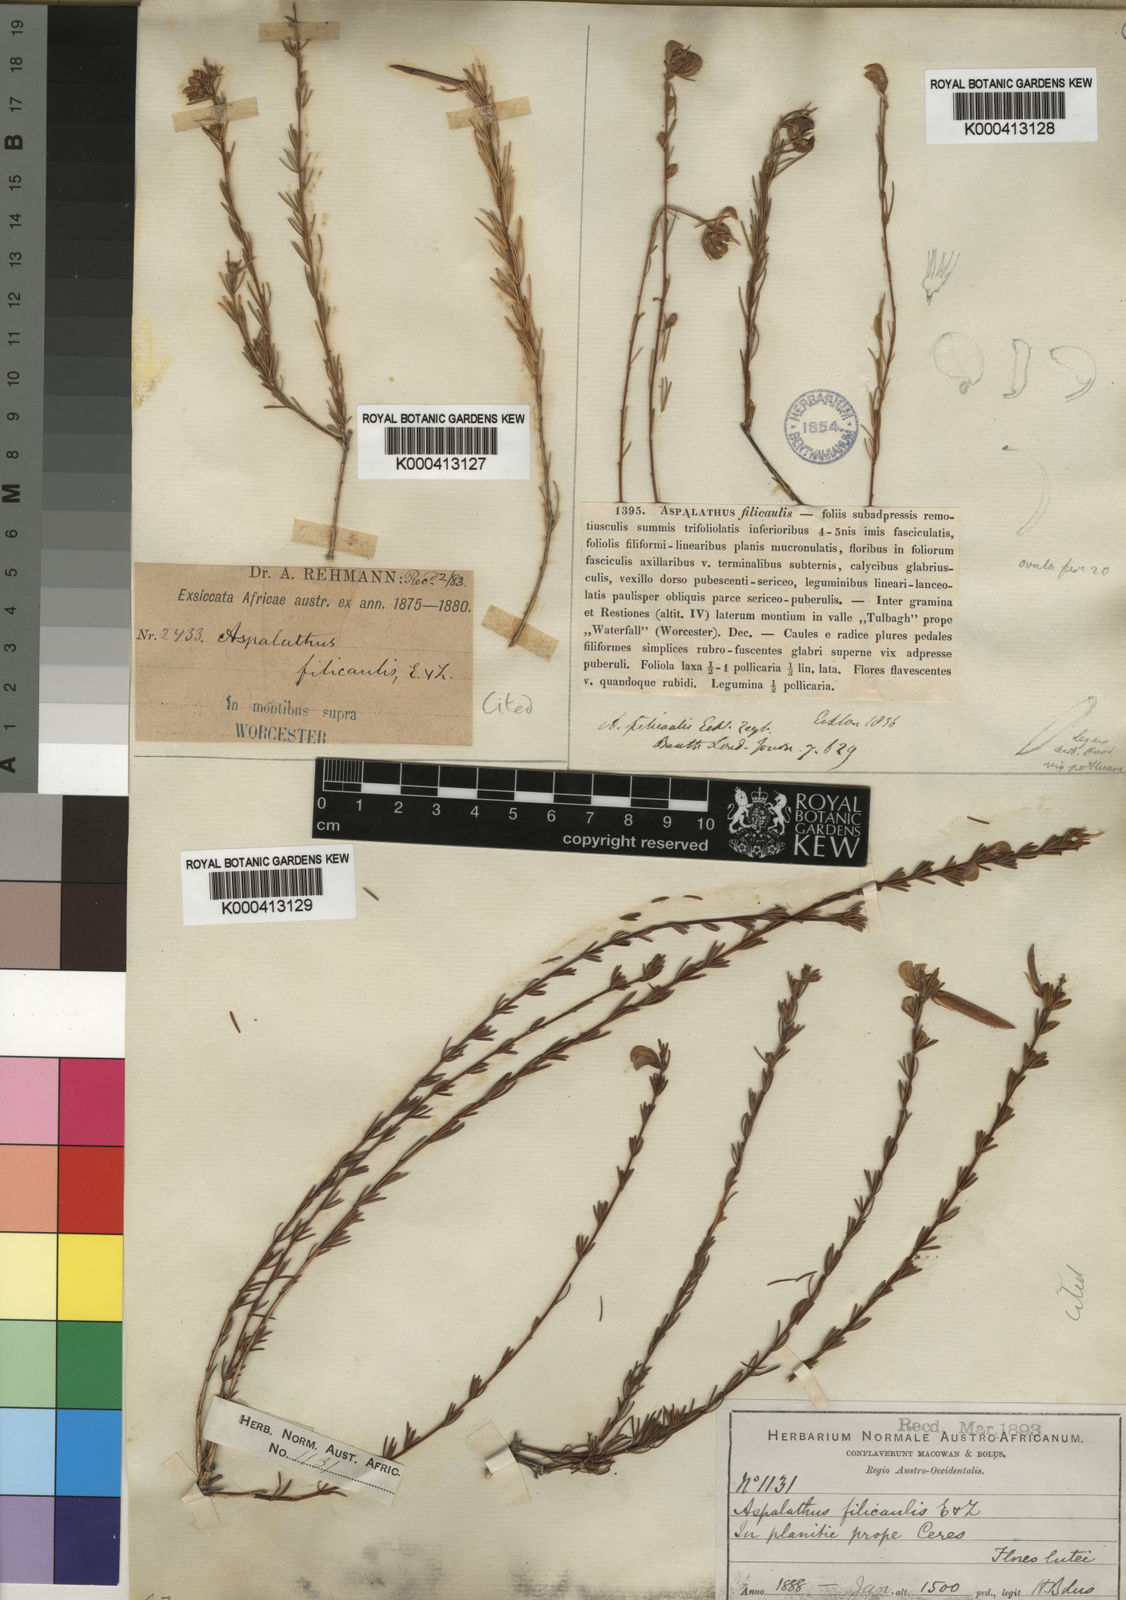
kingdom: Plantae
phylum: Tracheophyta
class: Magnoliopsida
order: Fabales
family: Fabaceae
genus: Aspalathus
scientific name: Aspalathus filicaulis
